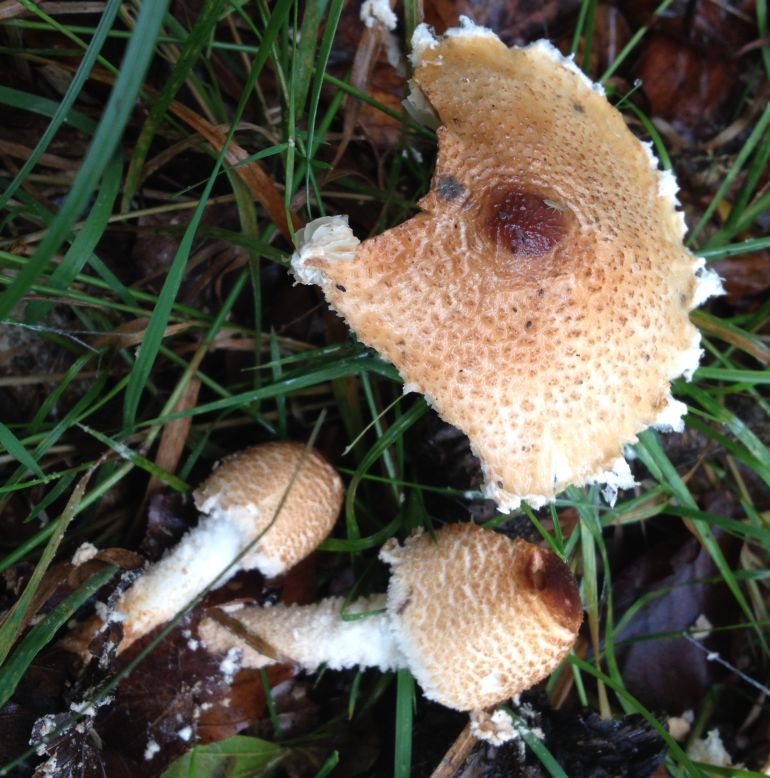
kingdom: Fungi
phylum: Basidiomycota
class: Agaricomycetes
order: Agaricales
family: Agaricaceae
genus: Lepiota
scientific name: Lepiota clypeolaria
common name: flosset parasolhat
